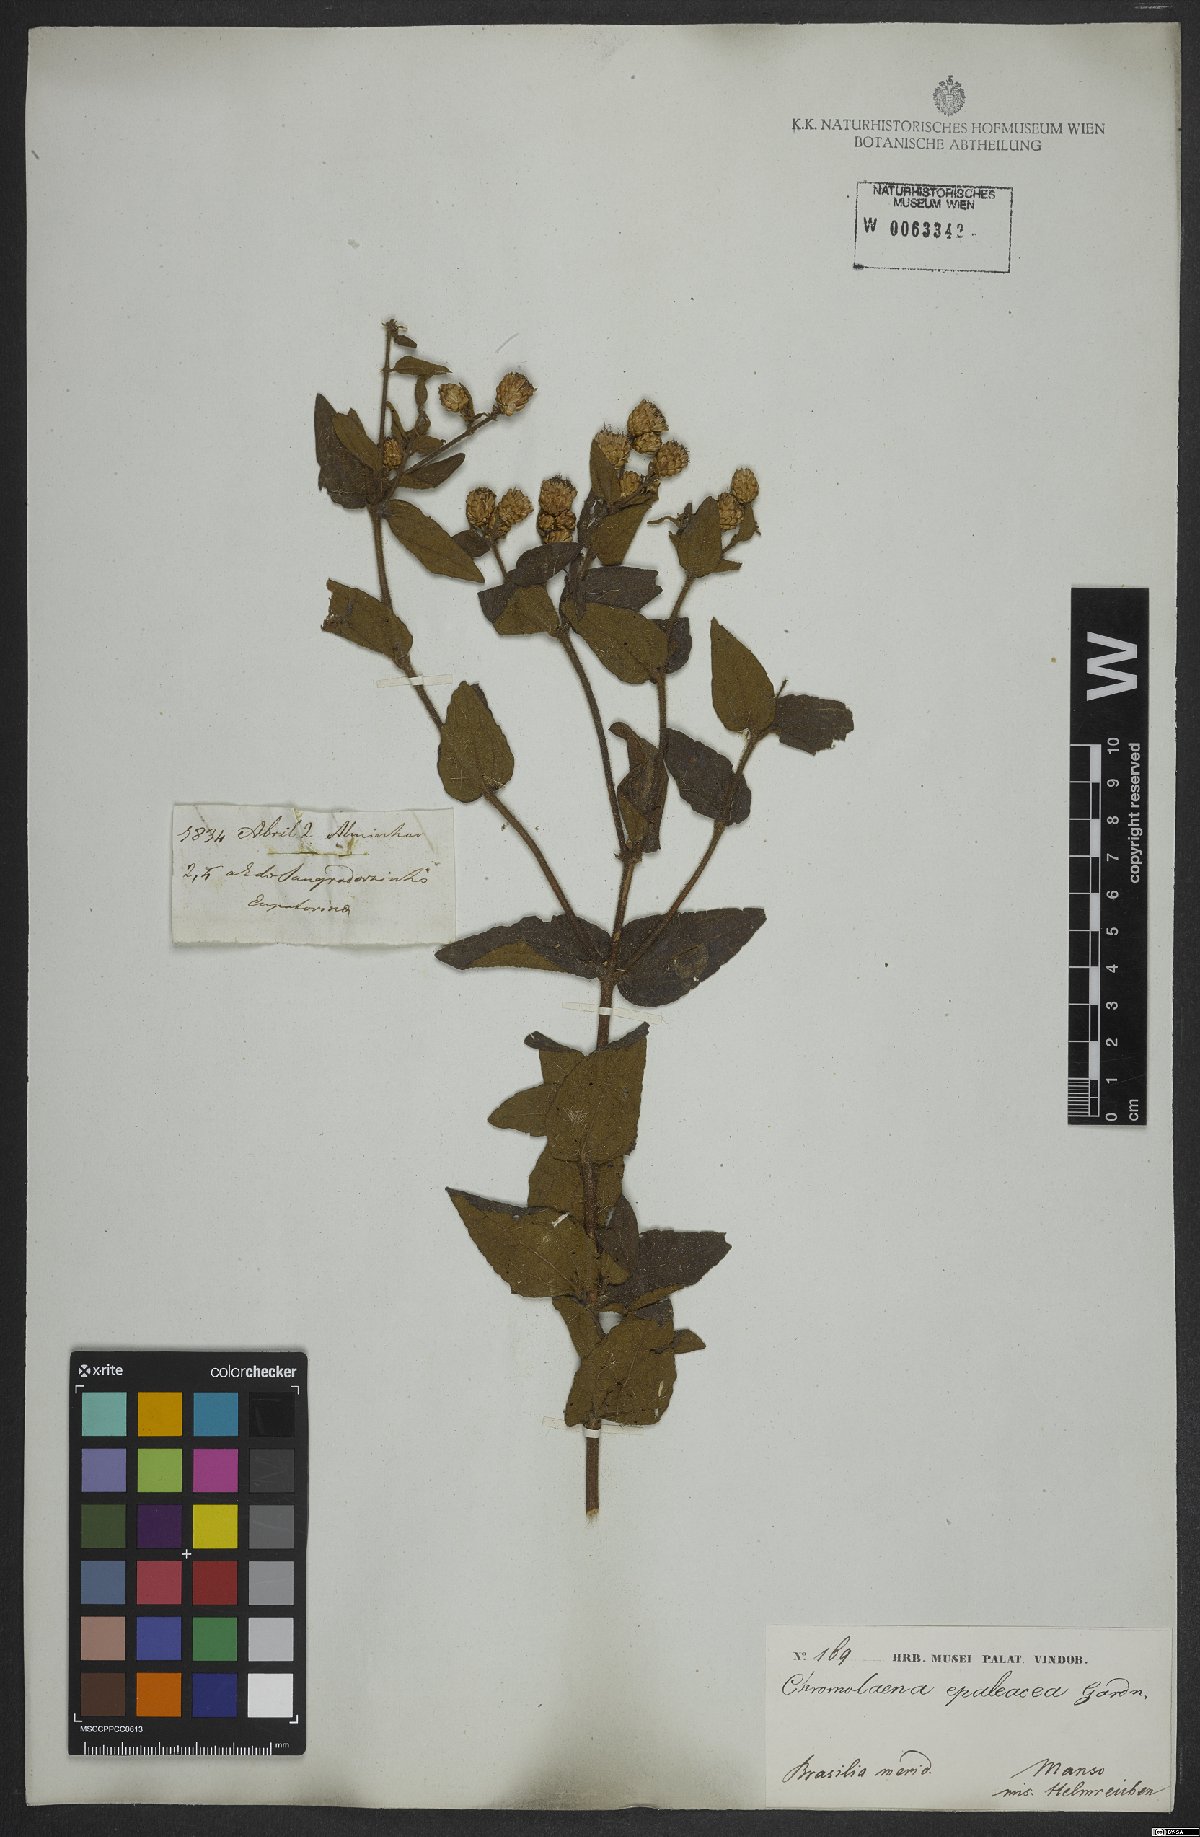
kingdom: Plantae
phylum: Tracheophyta
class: Magnoliopsida
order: Asterales
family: Asteraceae
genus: Chromolaena
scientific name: Chromolaena epaleacea
